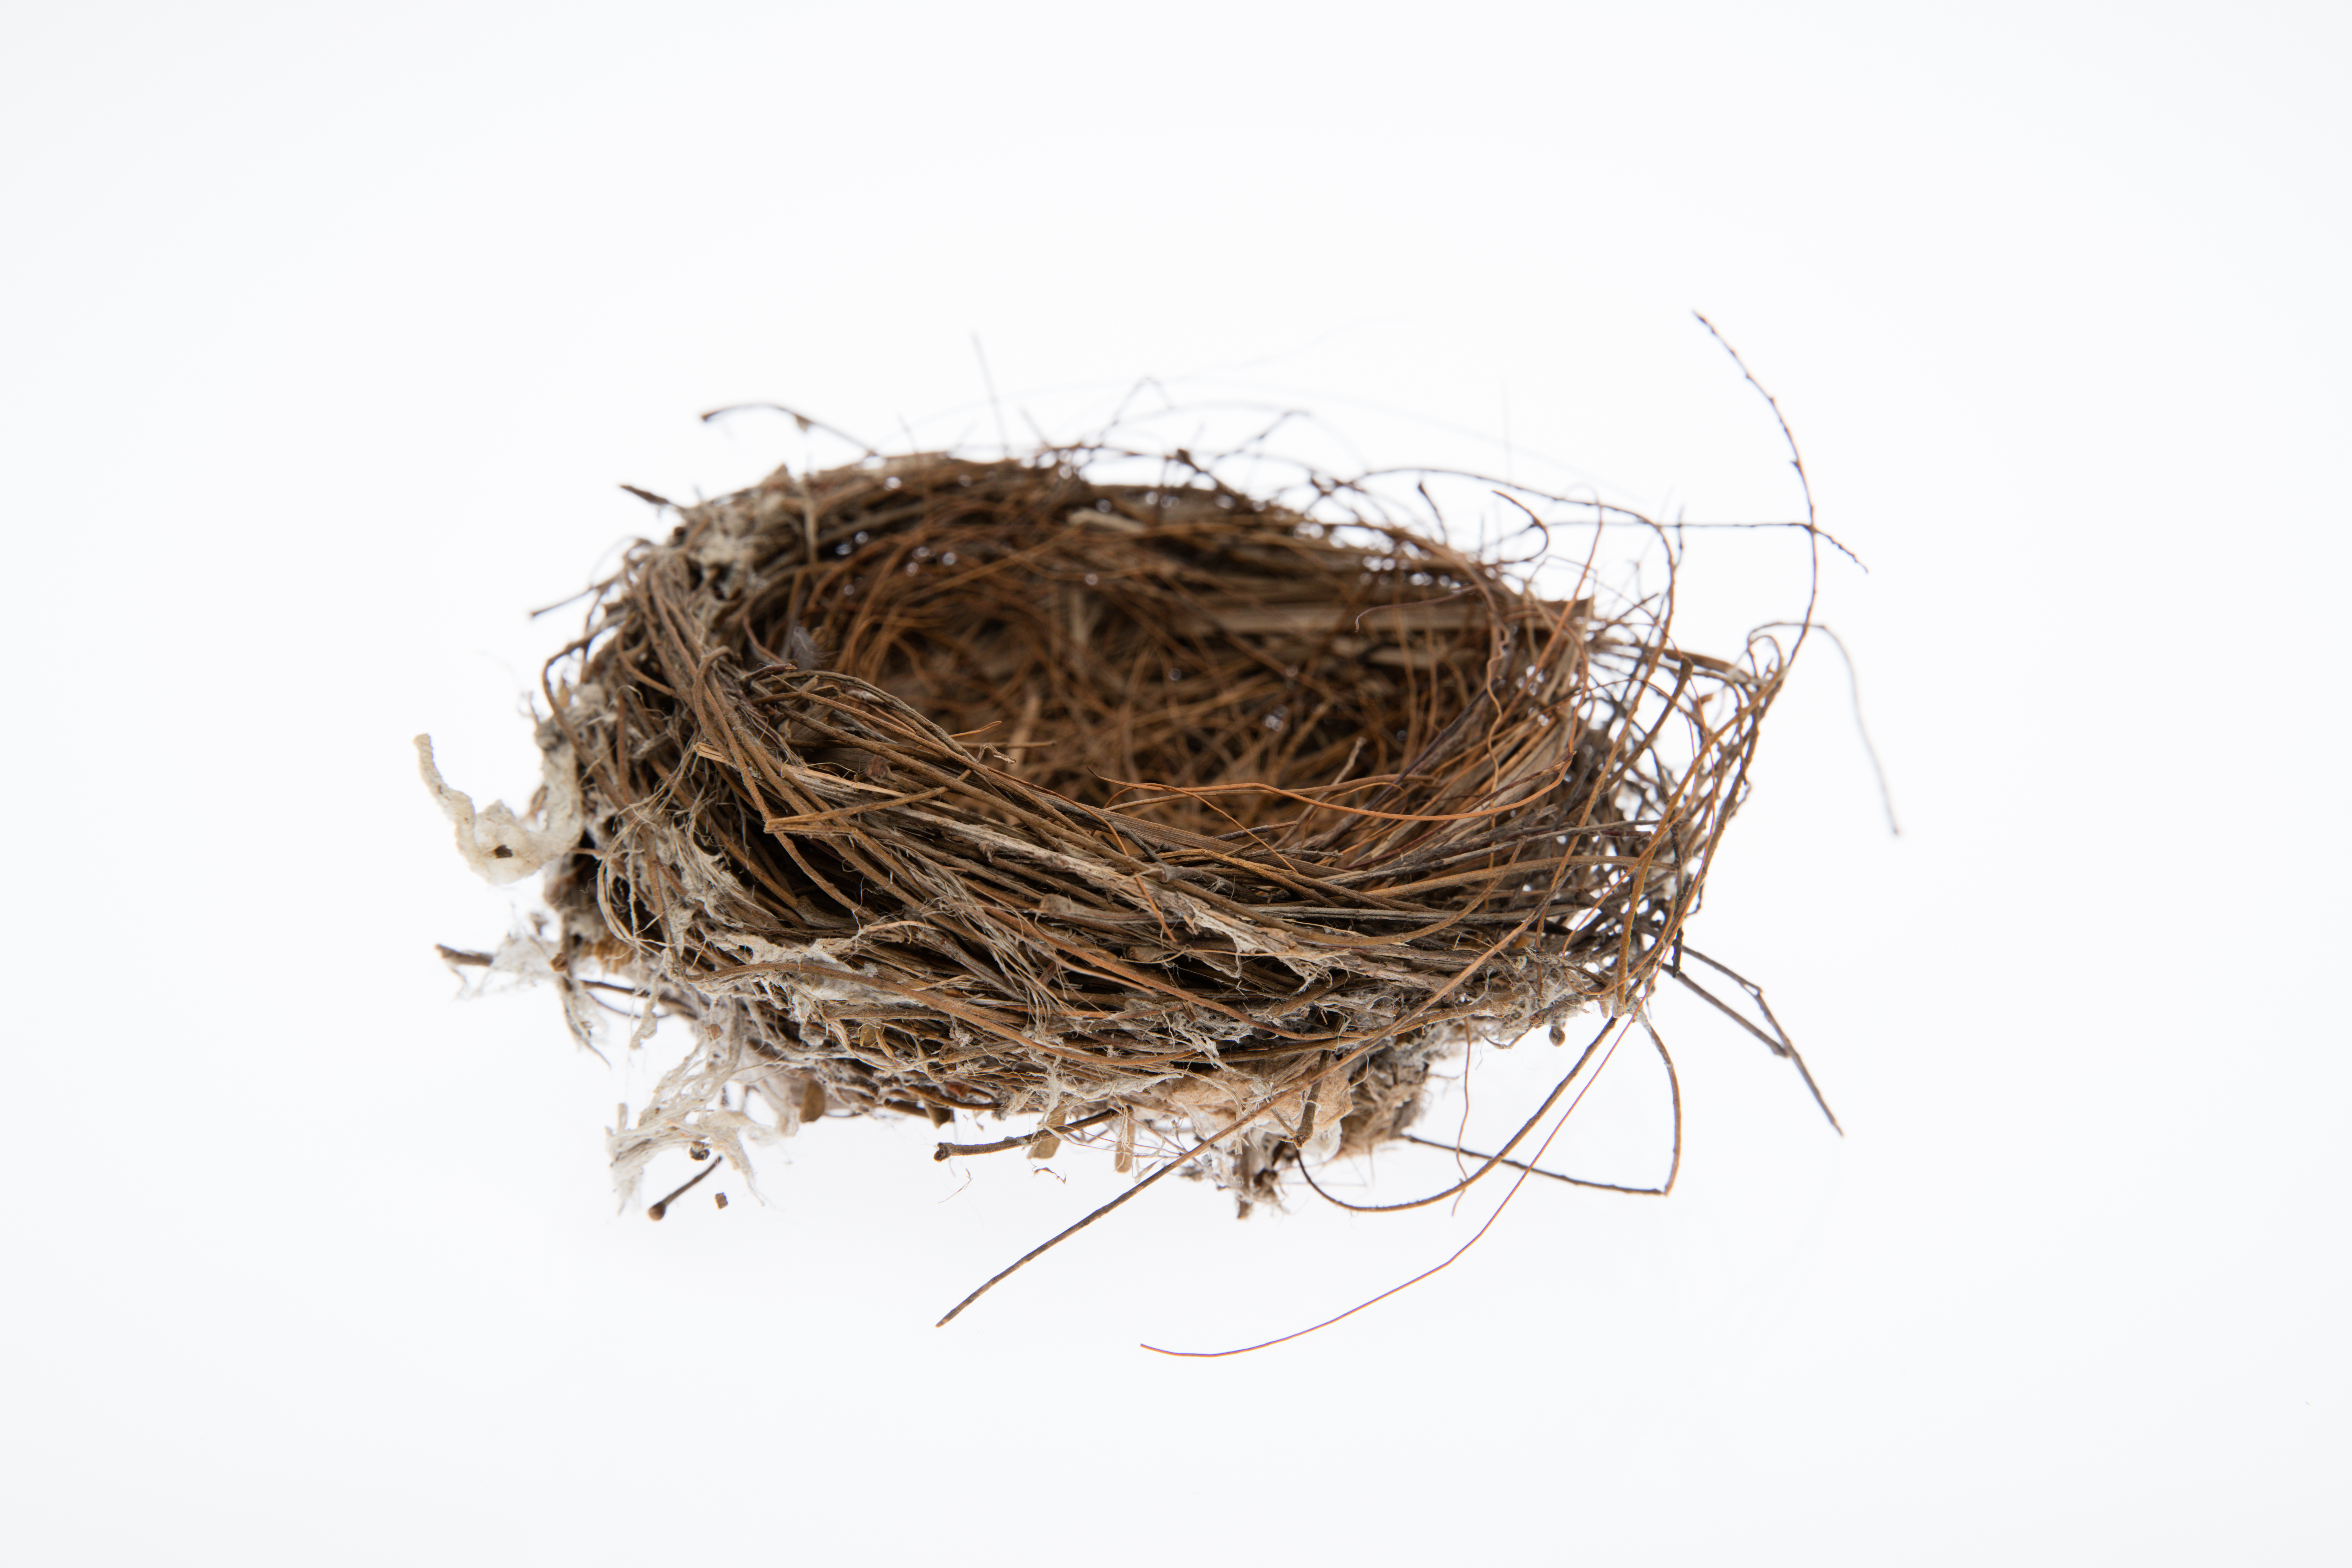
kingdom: Animalia
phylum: Chordata
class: Aves
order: Passeriformes
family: Pycnonotidae
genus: Pycnonotus
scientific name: Pycnonotus cafer
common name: Red-vented bulbul
